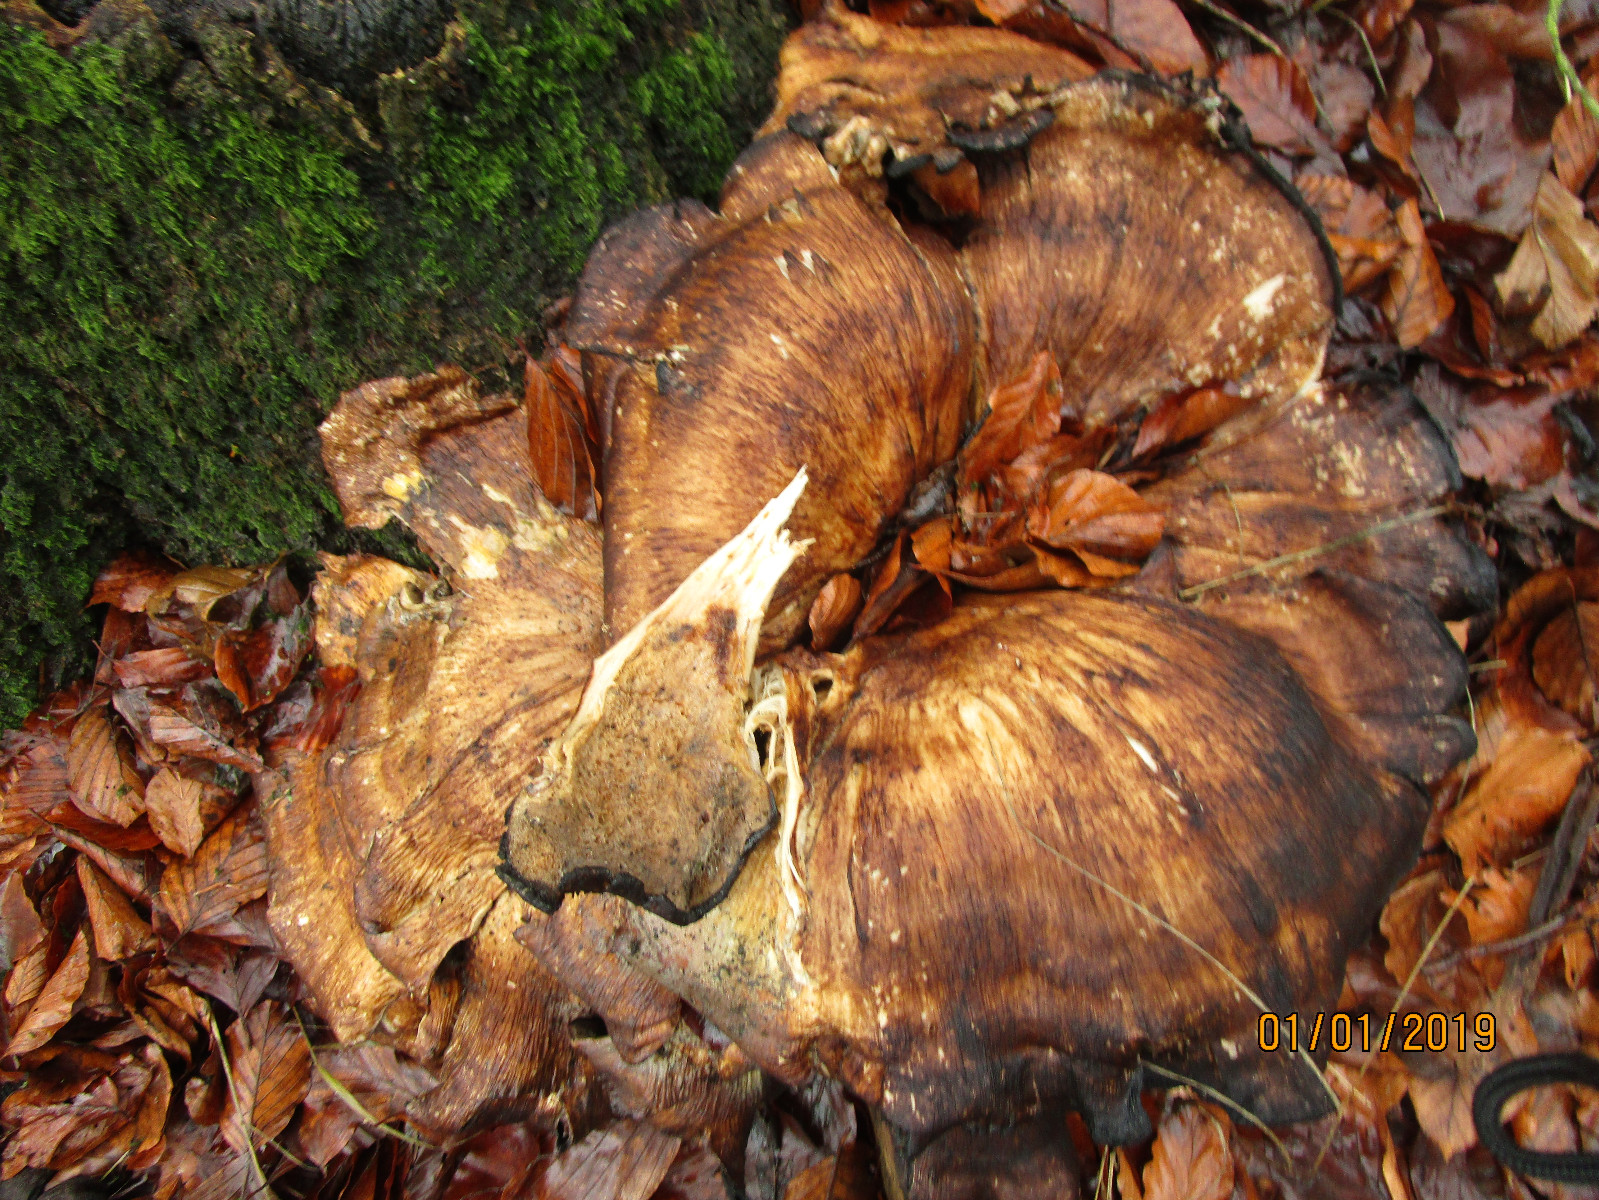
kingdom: Fungi
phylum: Basidiomycota
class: Agaricomycetes
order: Polyporales
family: Meripilaceae
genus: Meripilus
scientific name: Meripilus giganteus
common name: kæmpeporesvamp
